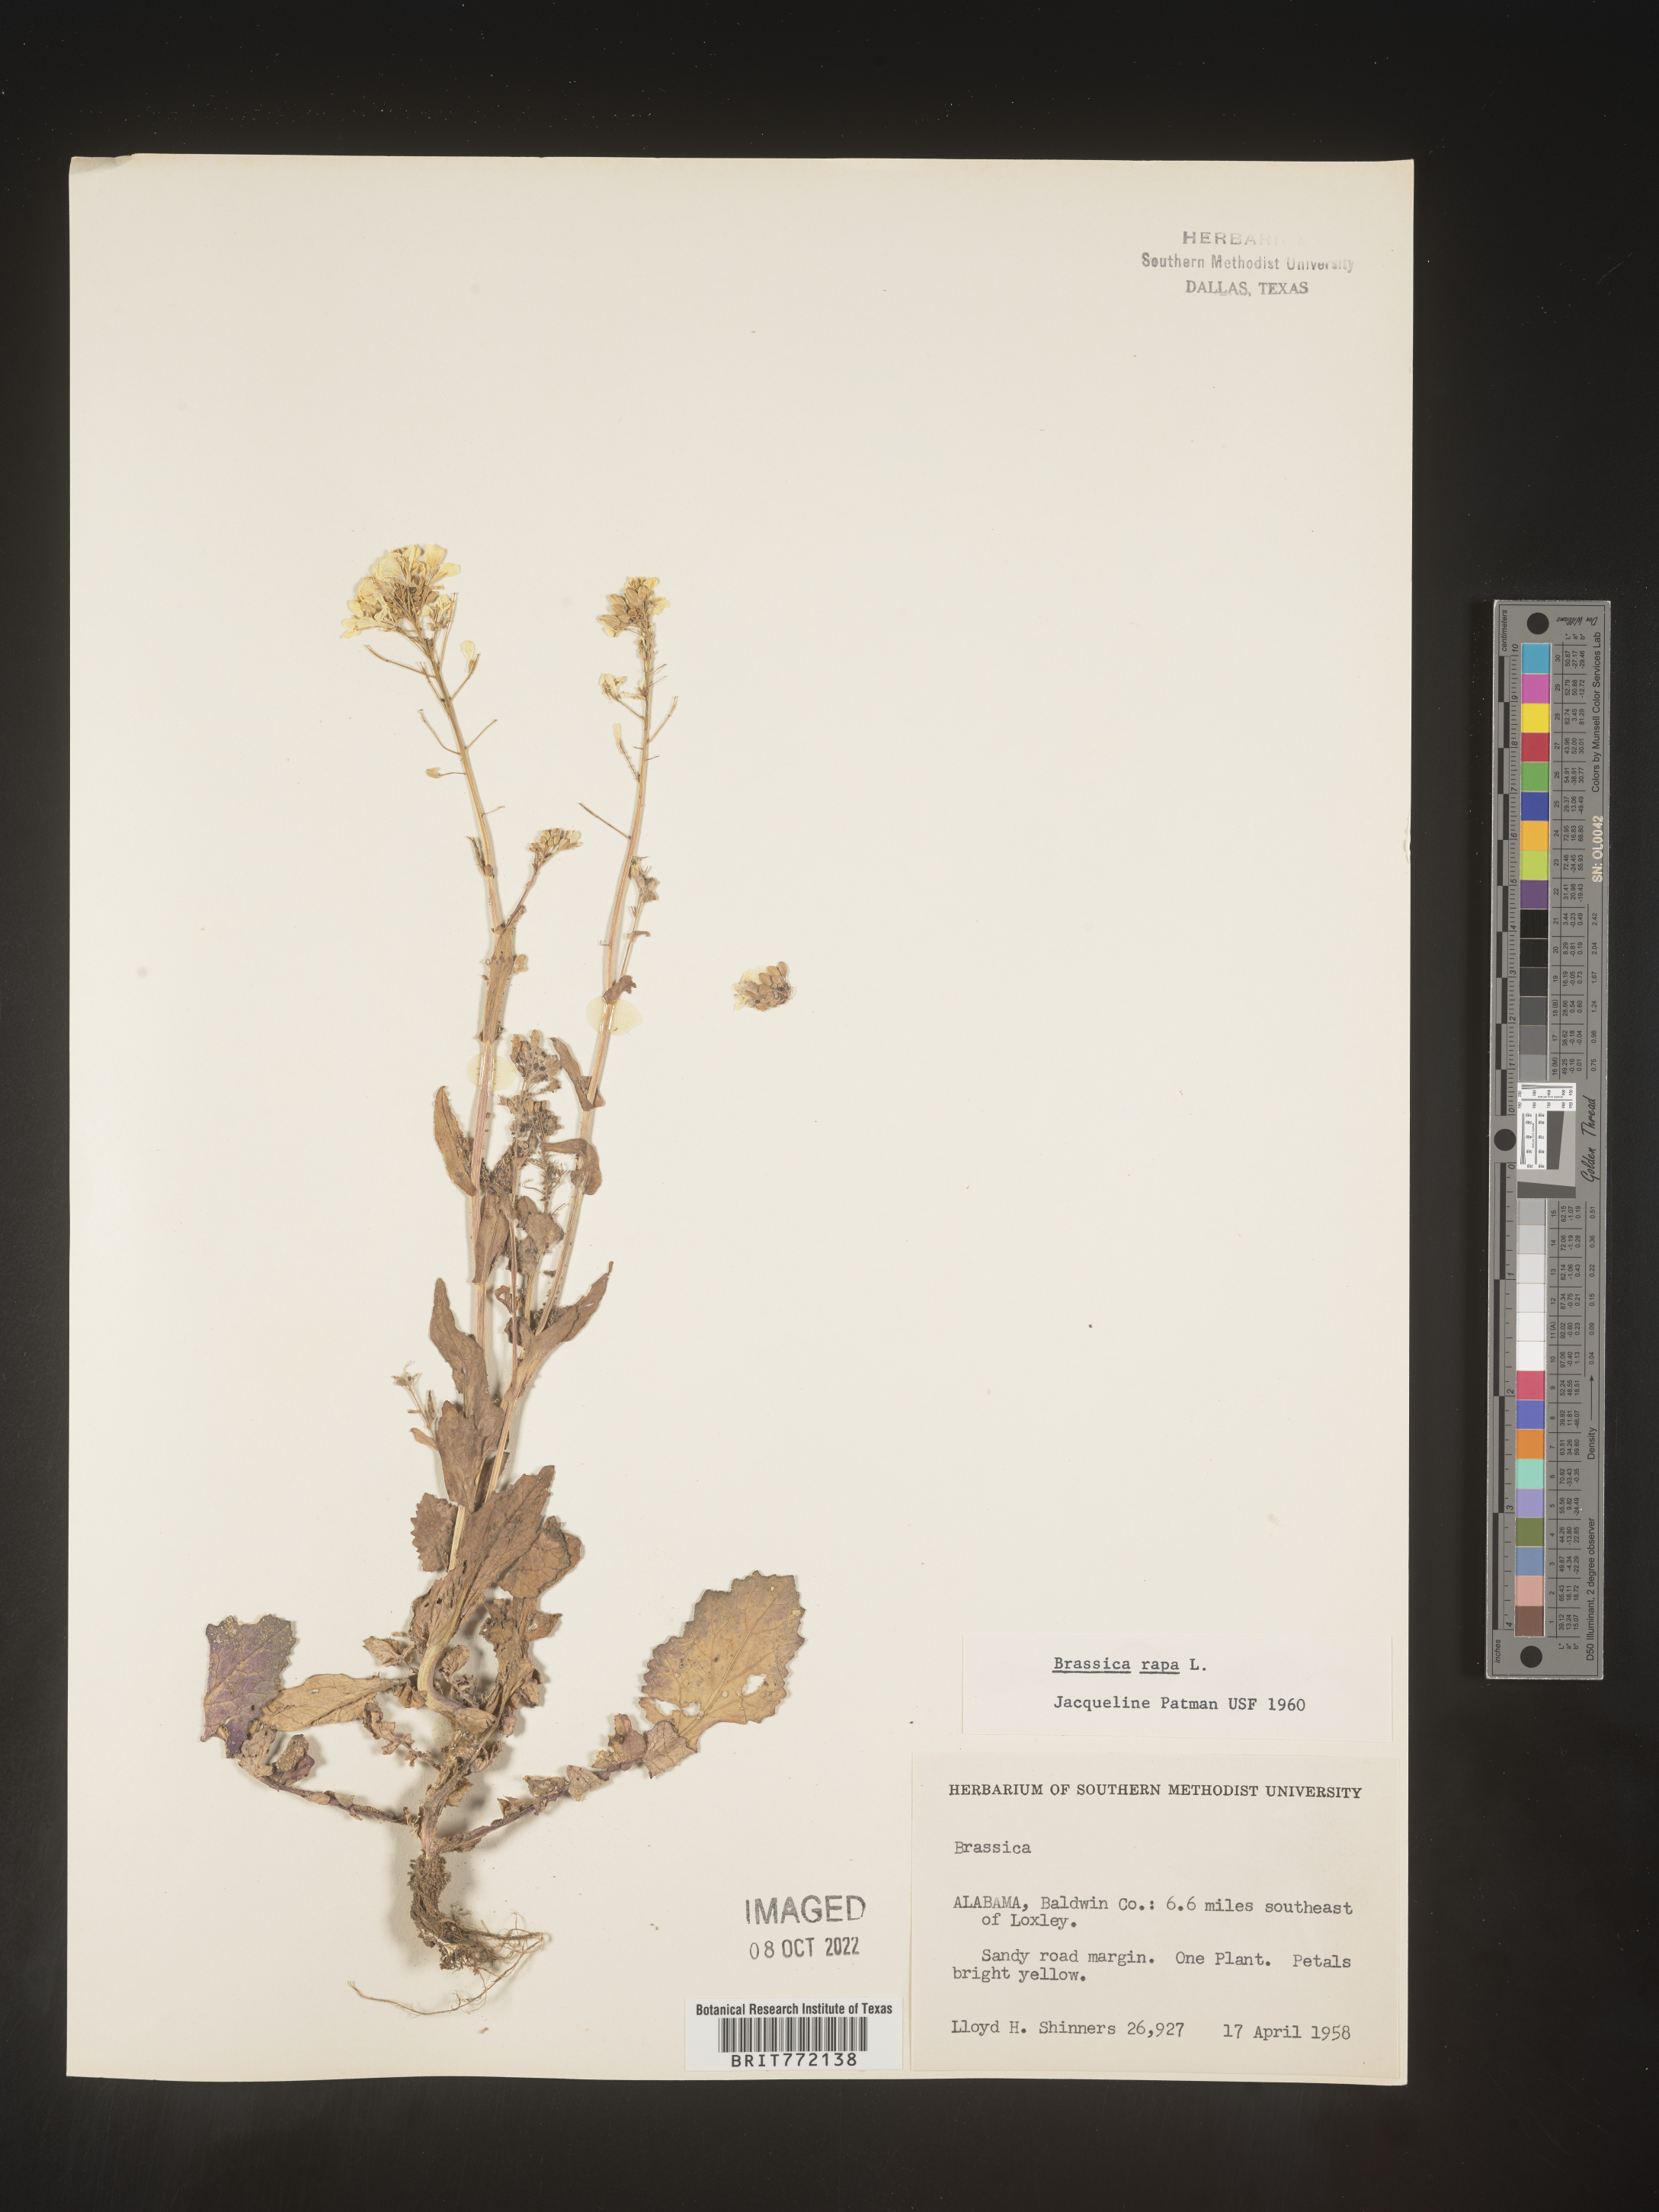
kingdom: Plantae
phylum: Tracheophyta
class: Magnoliopsida
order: Brassicales
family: Brassicaceae
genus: Brassica
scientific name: Brassica rapa
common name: Field mustard
